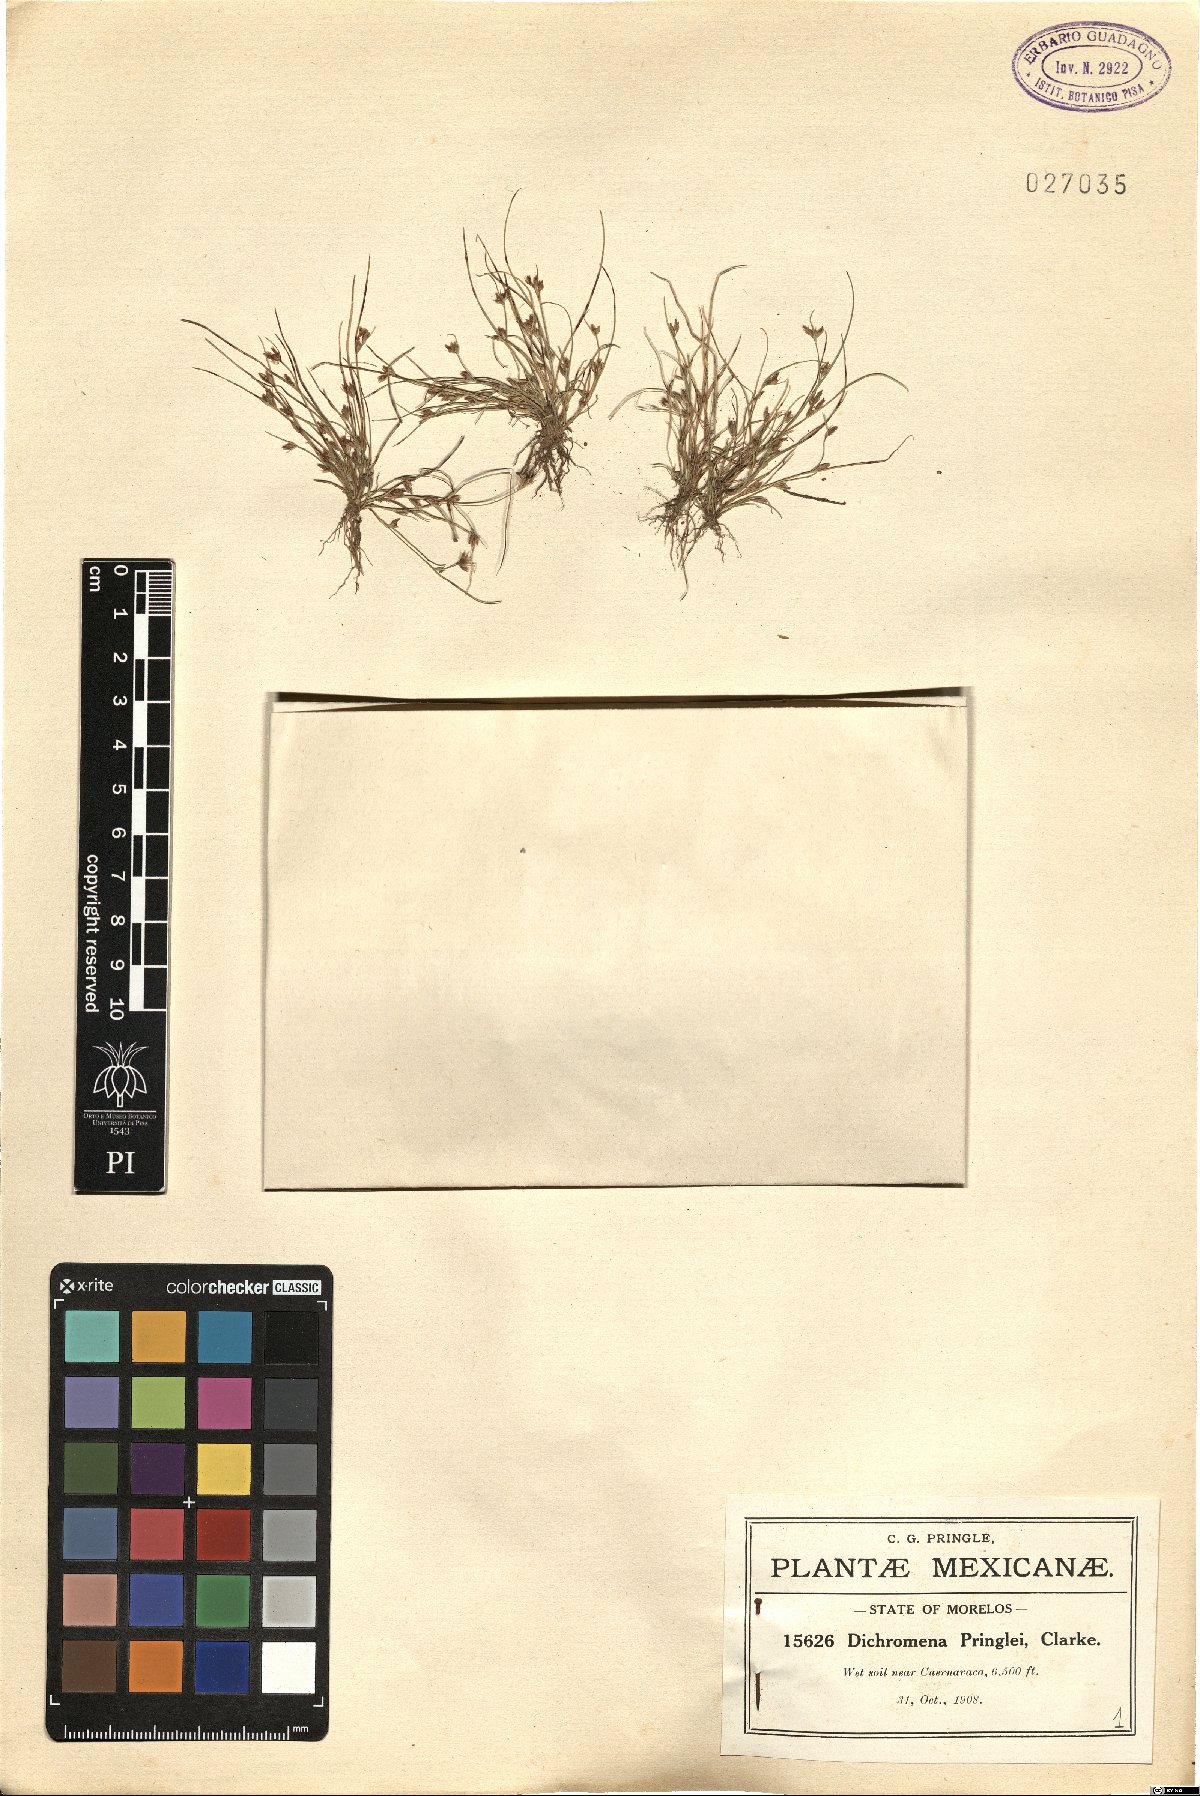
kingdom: Plantae
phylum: Tracheophyta
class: Liliopsida
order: Poales
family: Cyperaceae
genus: Rhynchospora
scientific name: Rhynchospora brevirostris
